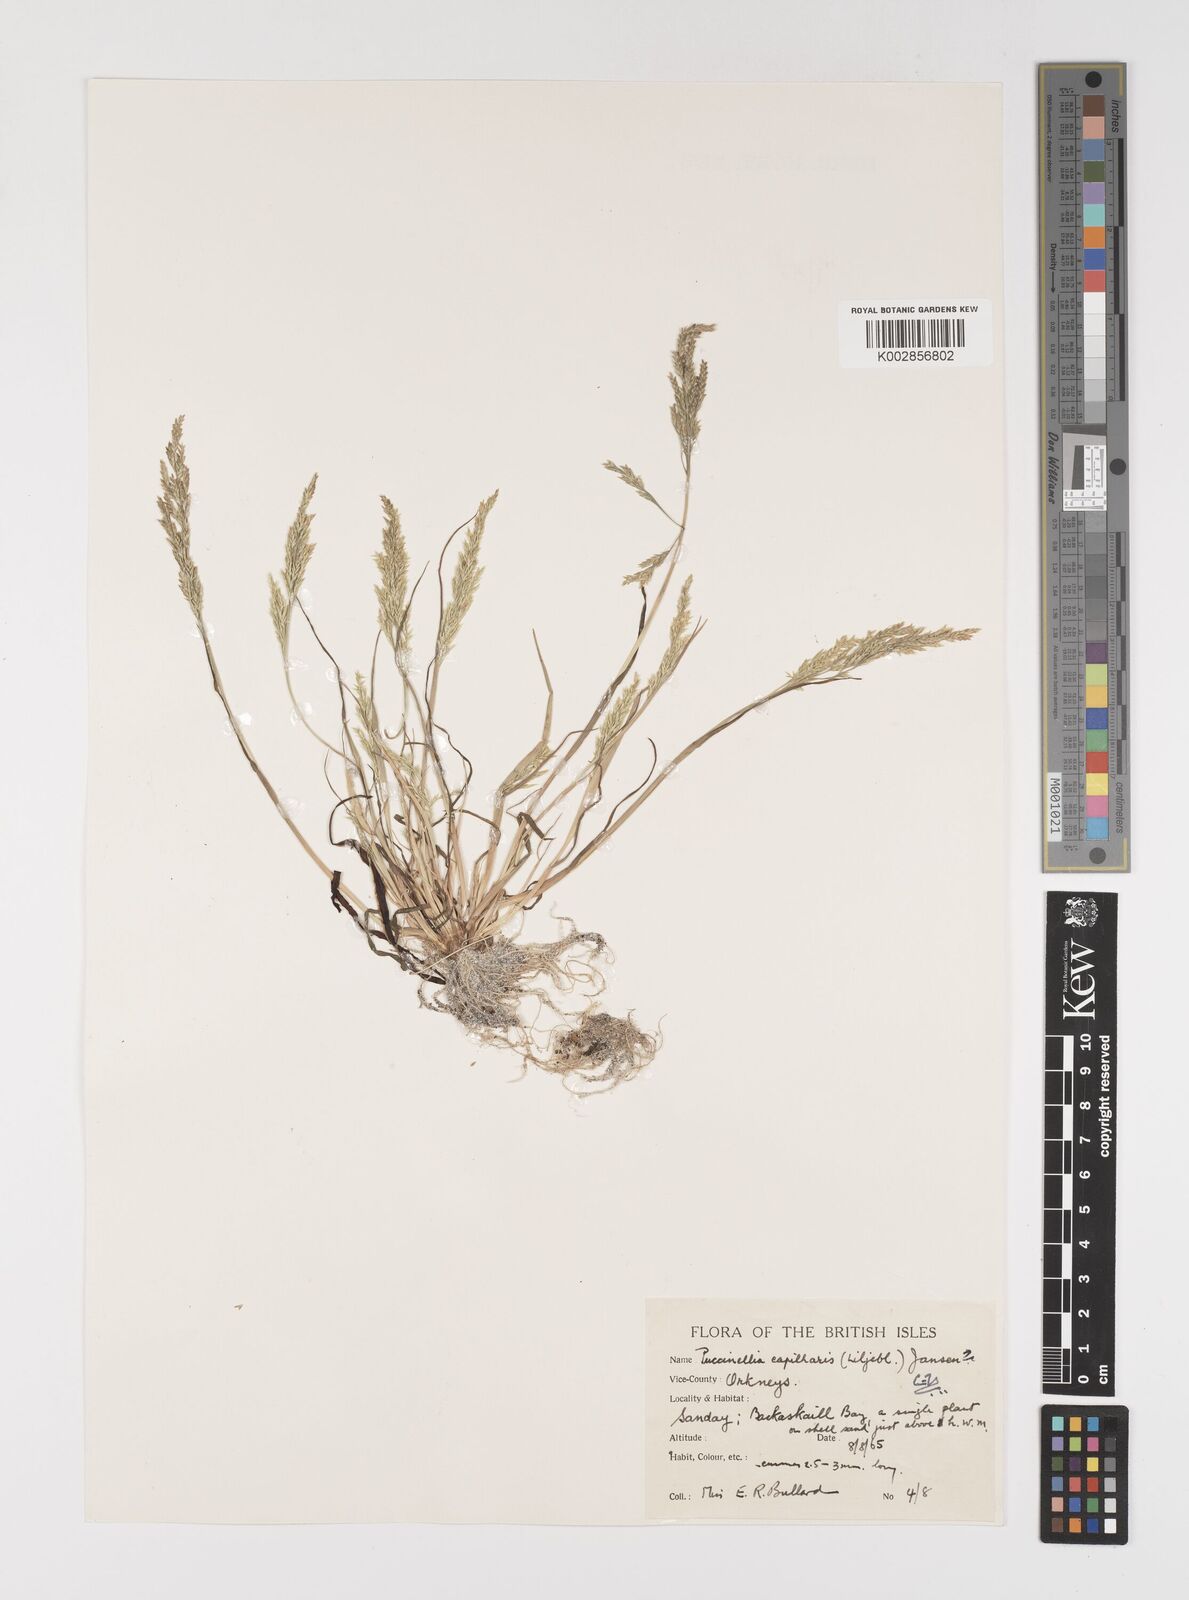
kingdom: Plantae
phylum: Tracheophyta
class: Liliopsida
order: Poales
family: Poaceae
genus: Puccinellia
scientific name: Puccinellia distans
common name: Weeping alkaligrass
